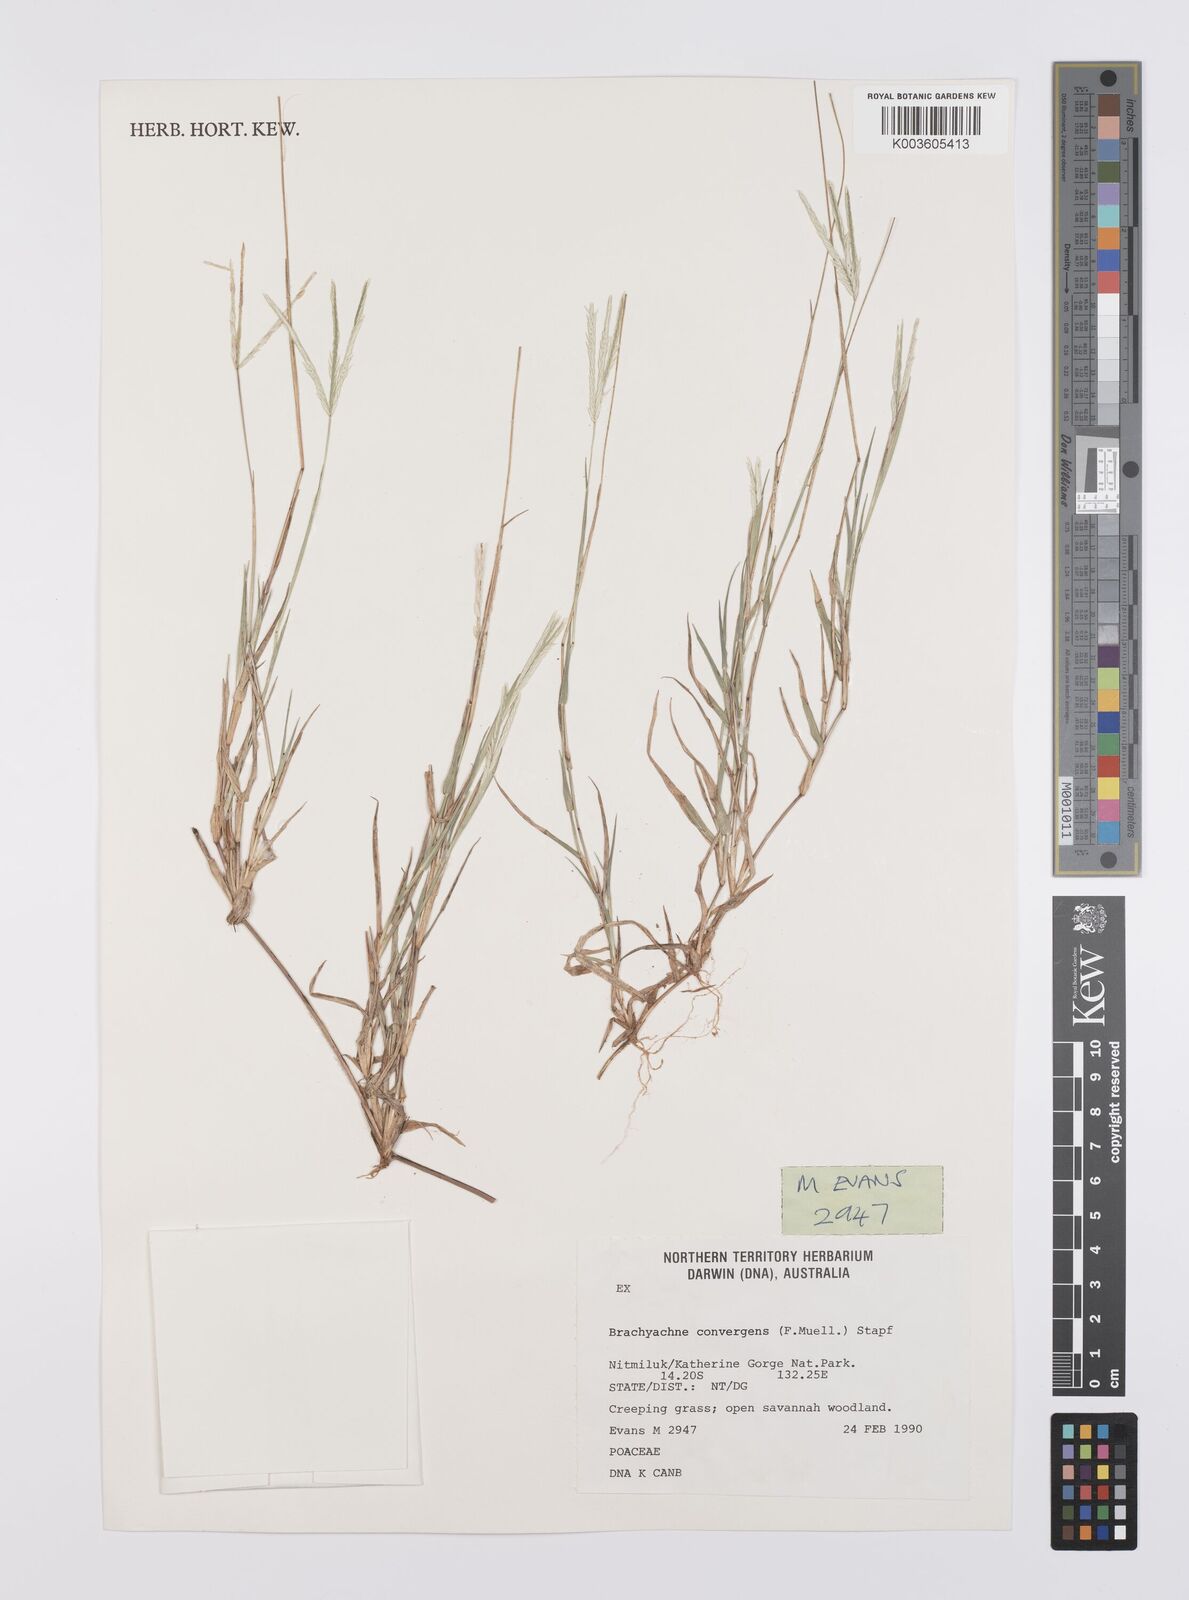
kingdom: Plantae
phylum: Tracheophyta
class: Liliopsida
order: Poales
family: Poaceae
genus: Cynodon
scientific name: Cynodon convergens
